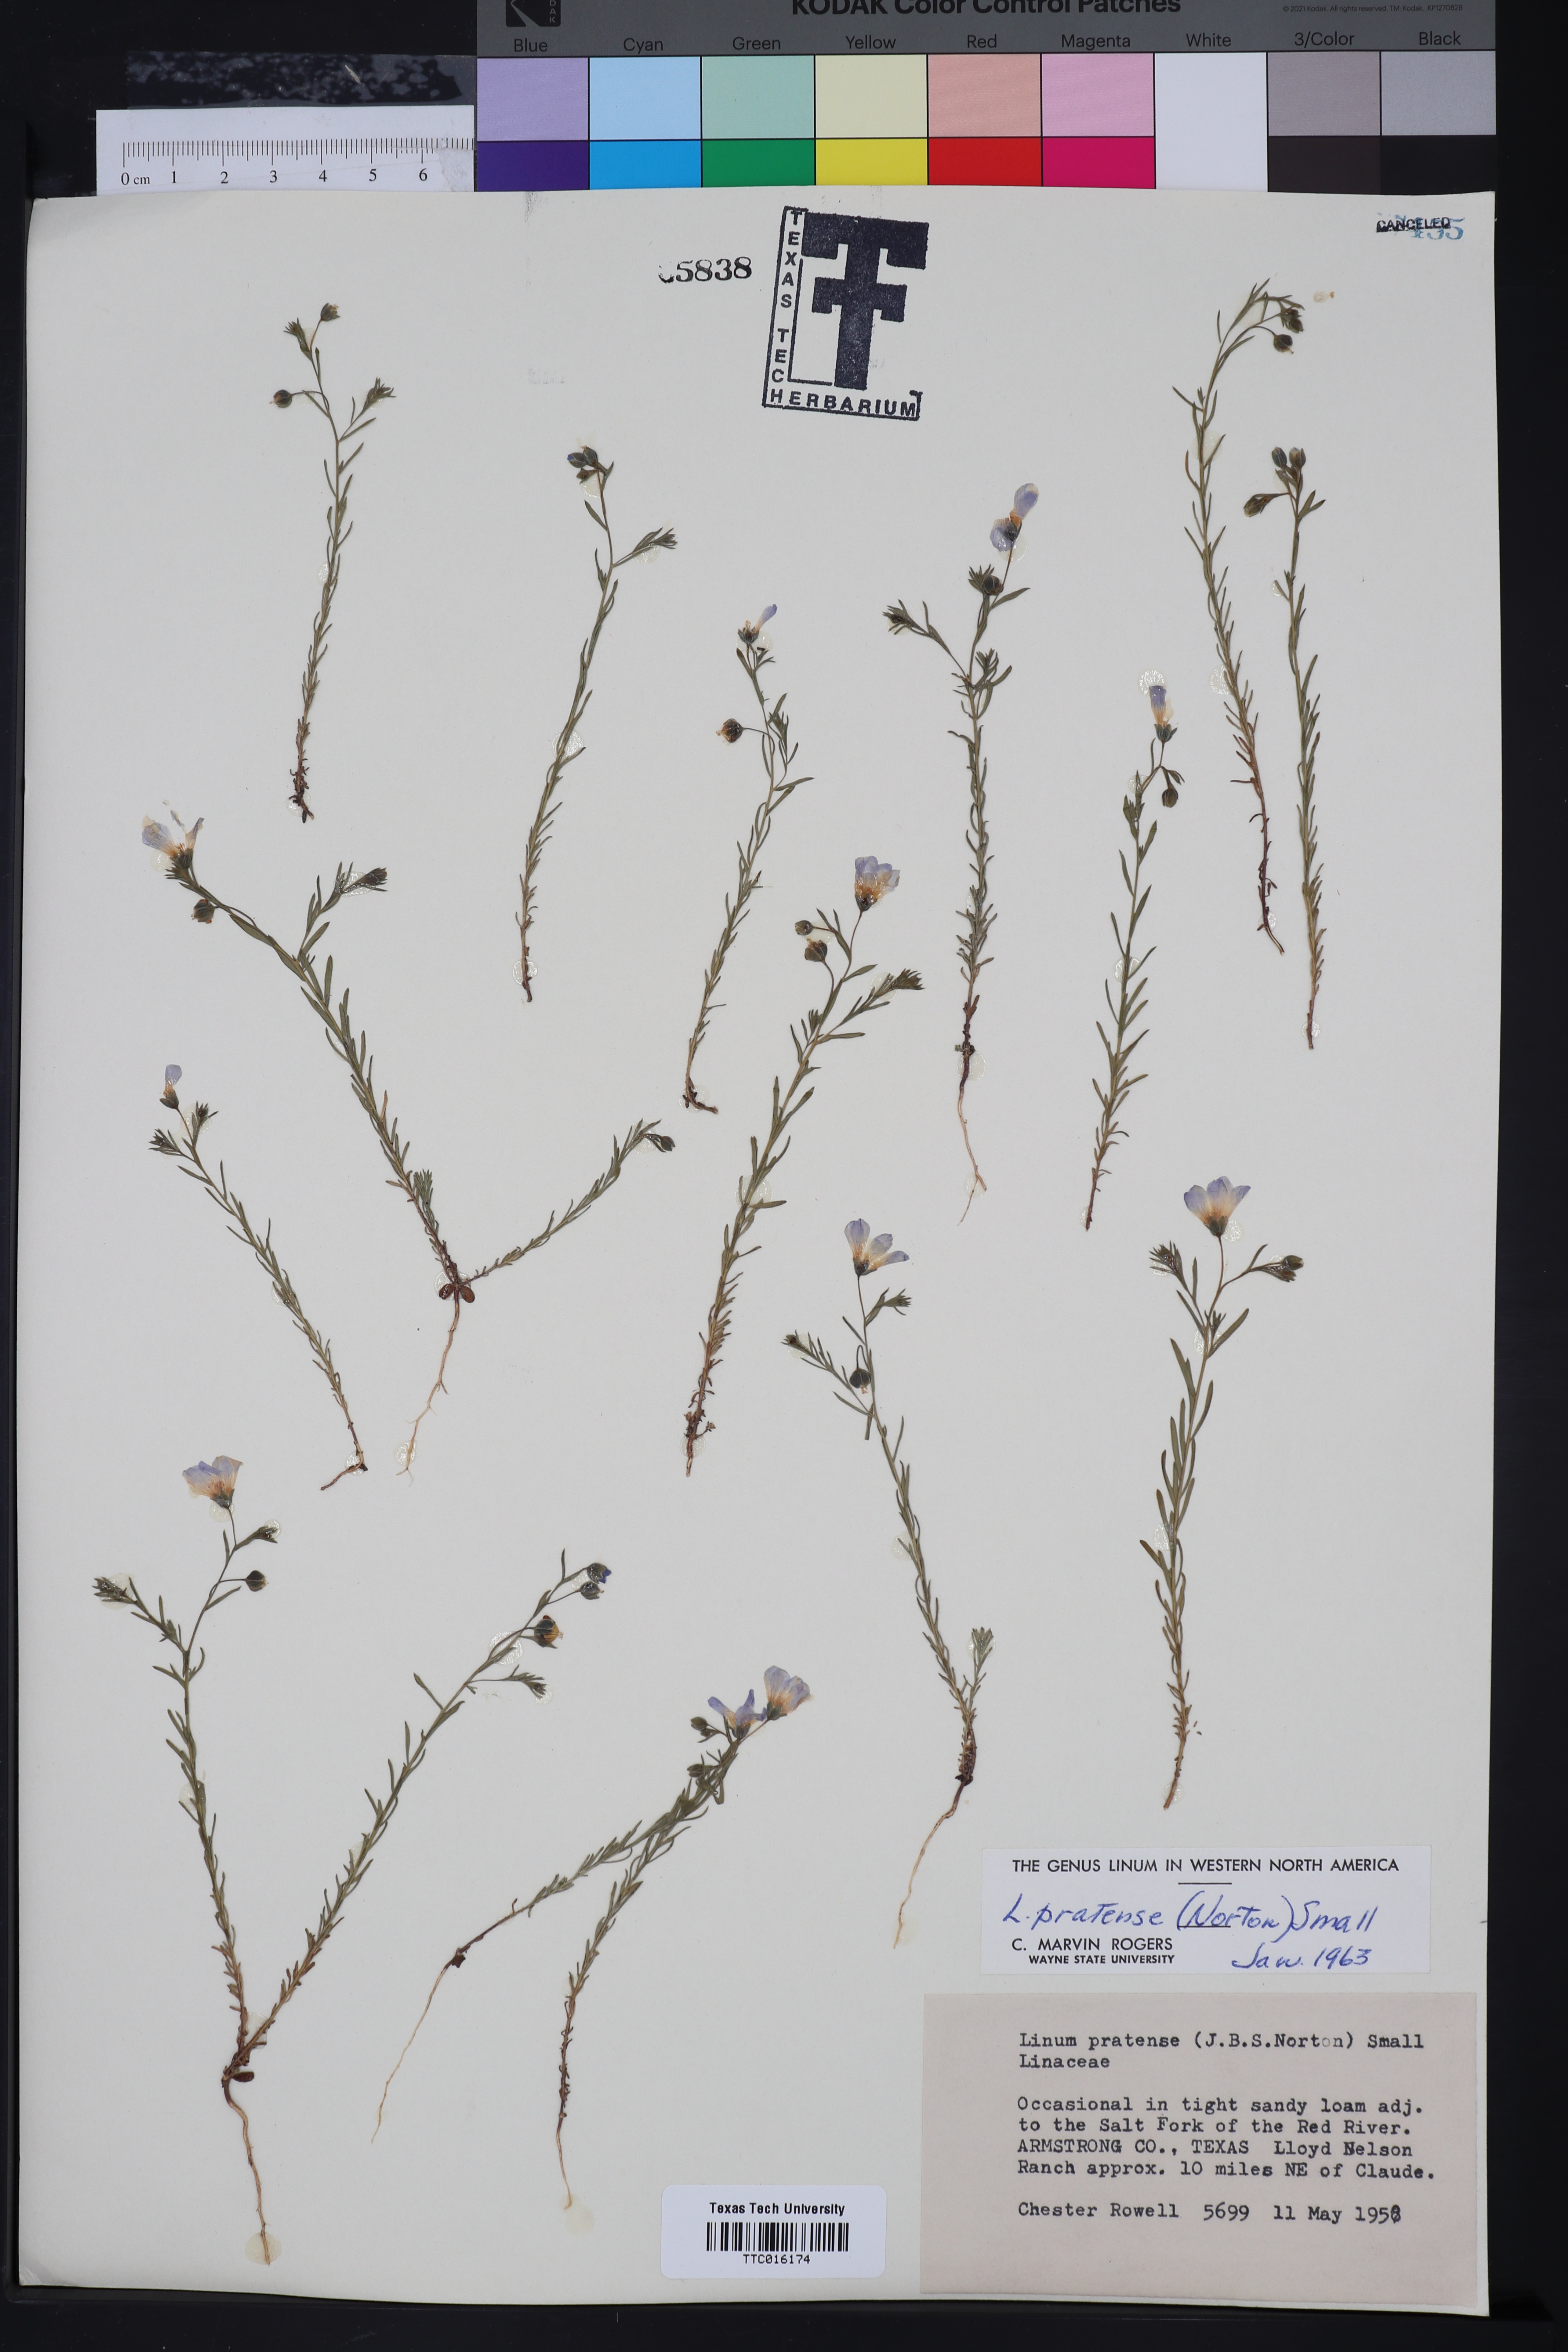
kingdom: Plantae
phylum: Tracheophyta
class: Magnoliopsida
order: Malpighiales
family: Linaceae
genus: Linum
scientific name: Linum pratense
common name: Norton's flax
